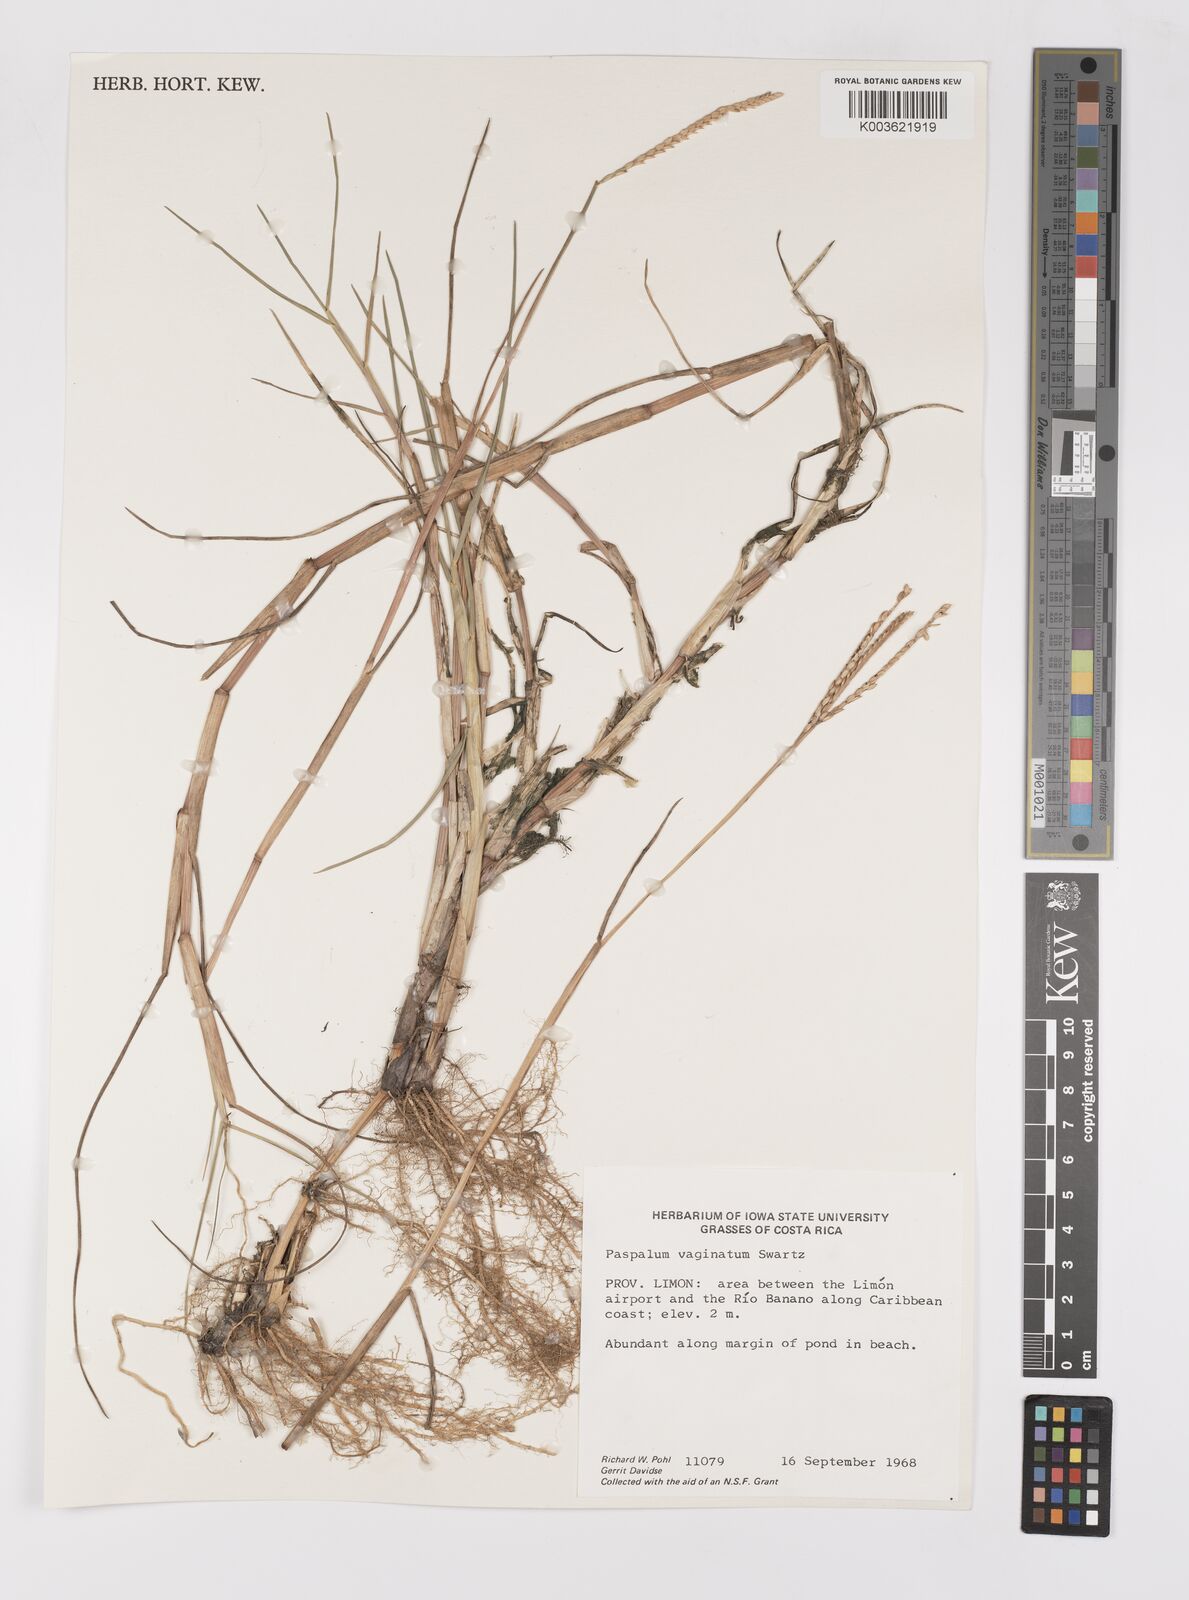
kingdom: Plantae
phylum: Tracheophyta
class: Liliopsida
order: Poales
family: Poaceae
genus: Paspalum
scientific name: Paspalum vaginatum
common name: Seashore paspalum
